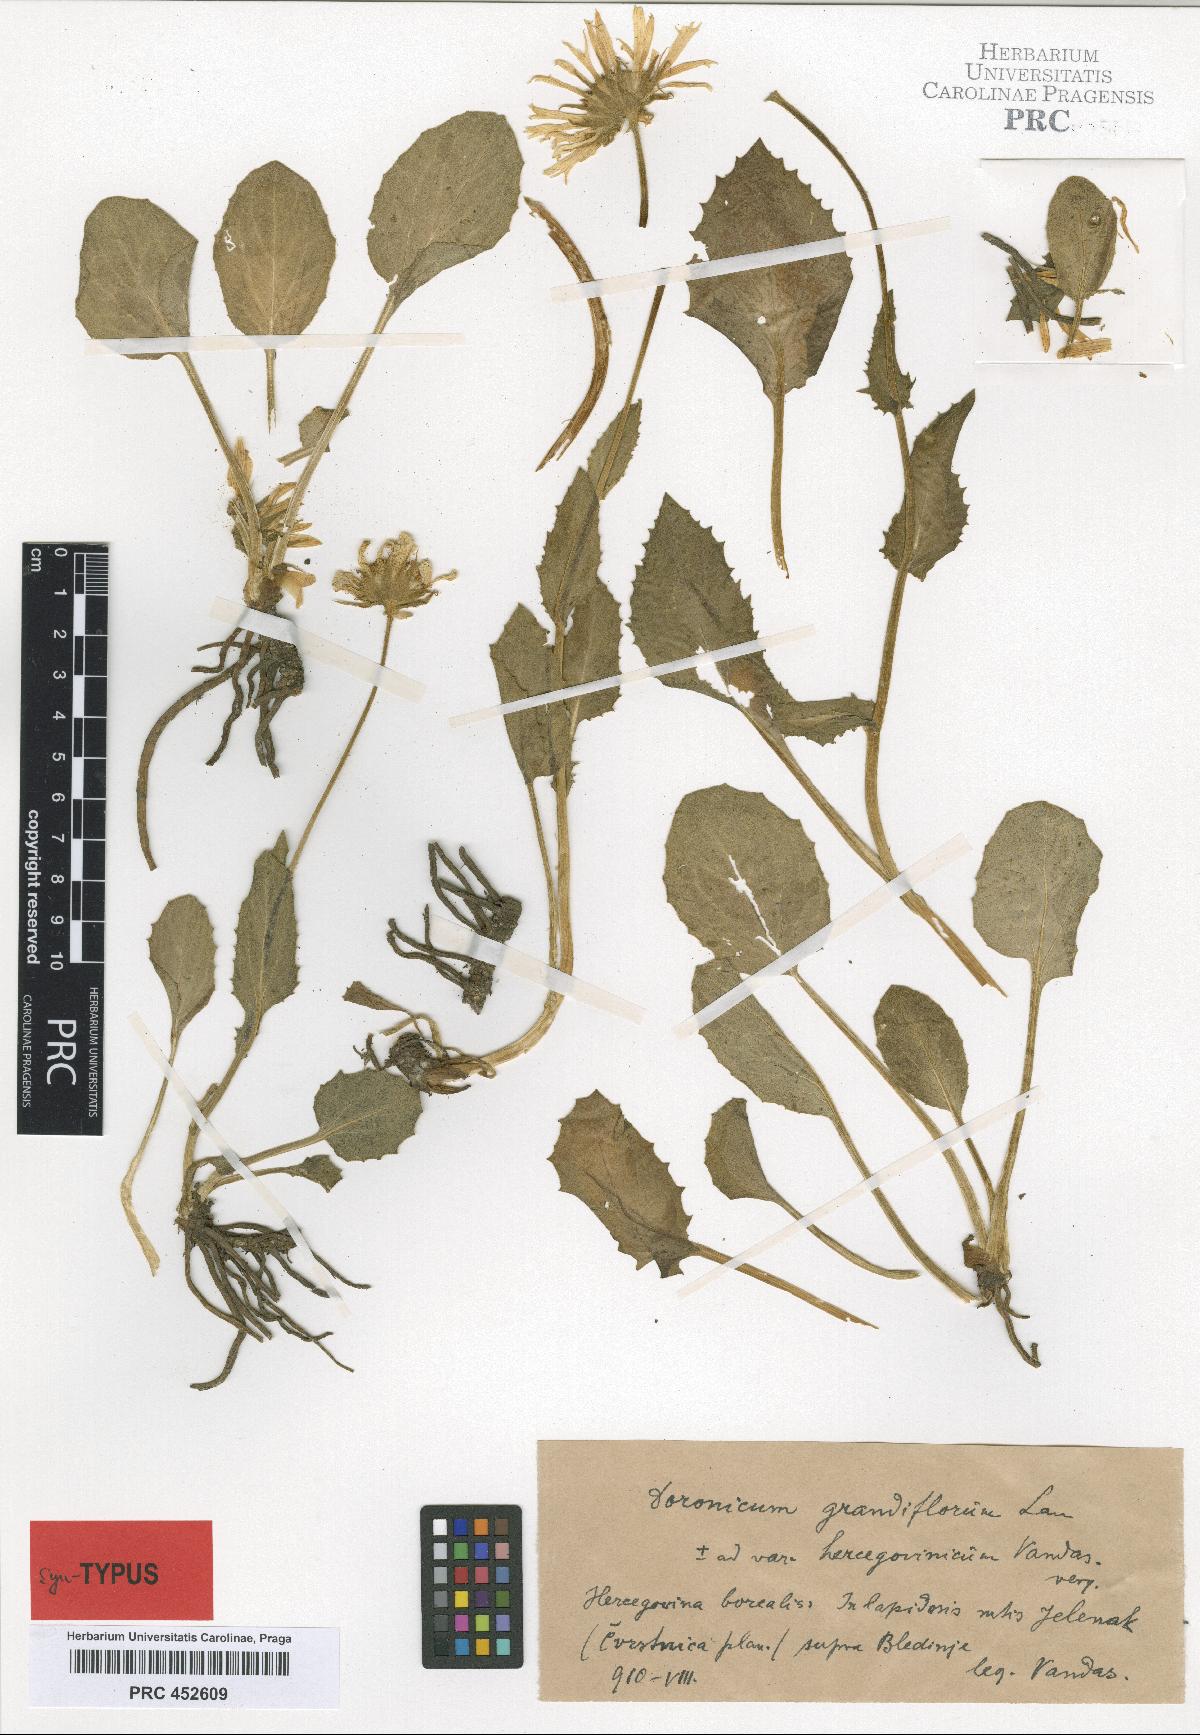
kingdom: Plantae
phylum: Tracheophyta
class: Magnoliopsida
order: Asterales
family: Asteraceae
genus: Doronicum
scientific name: Doronicum grandiflorum
